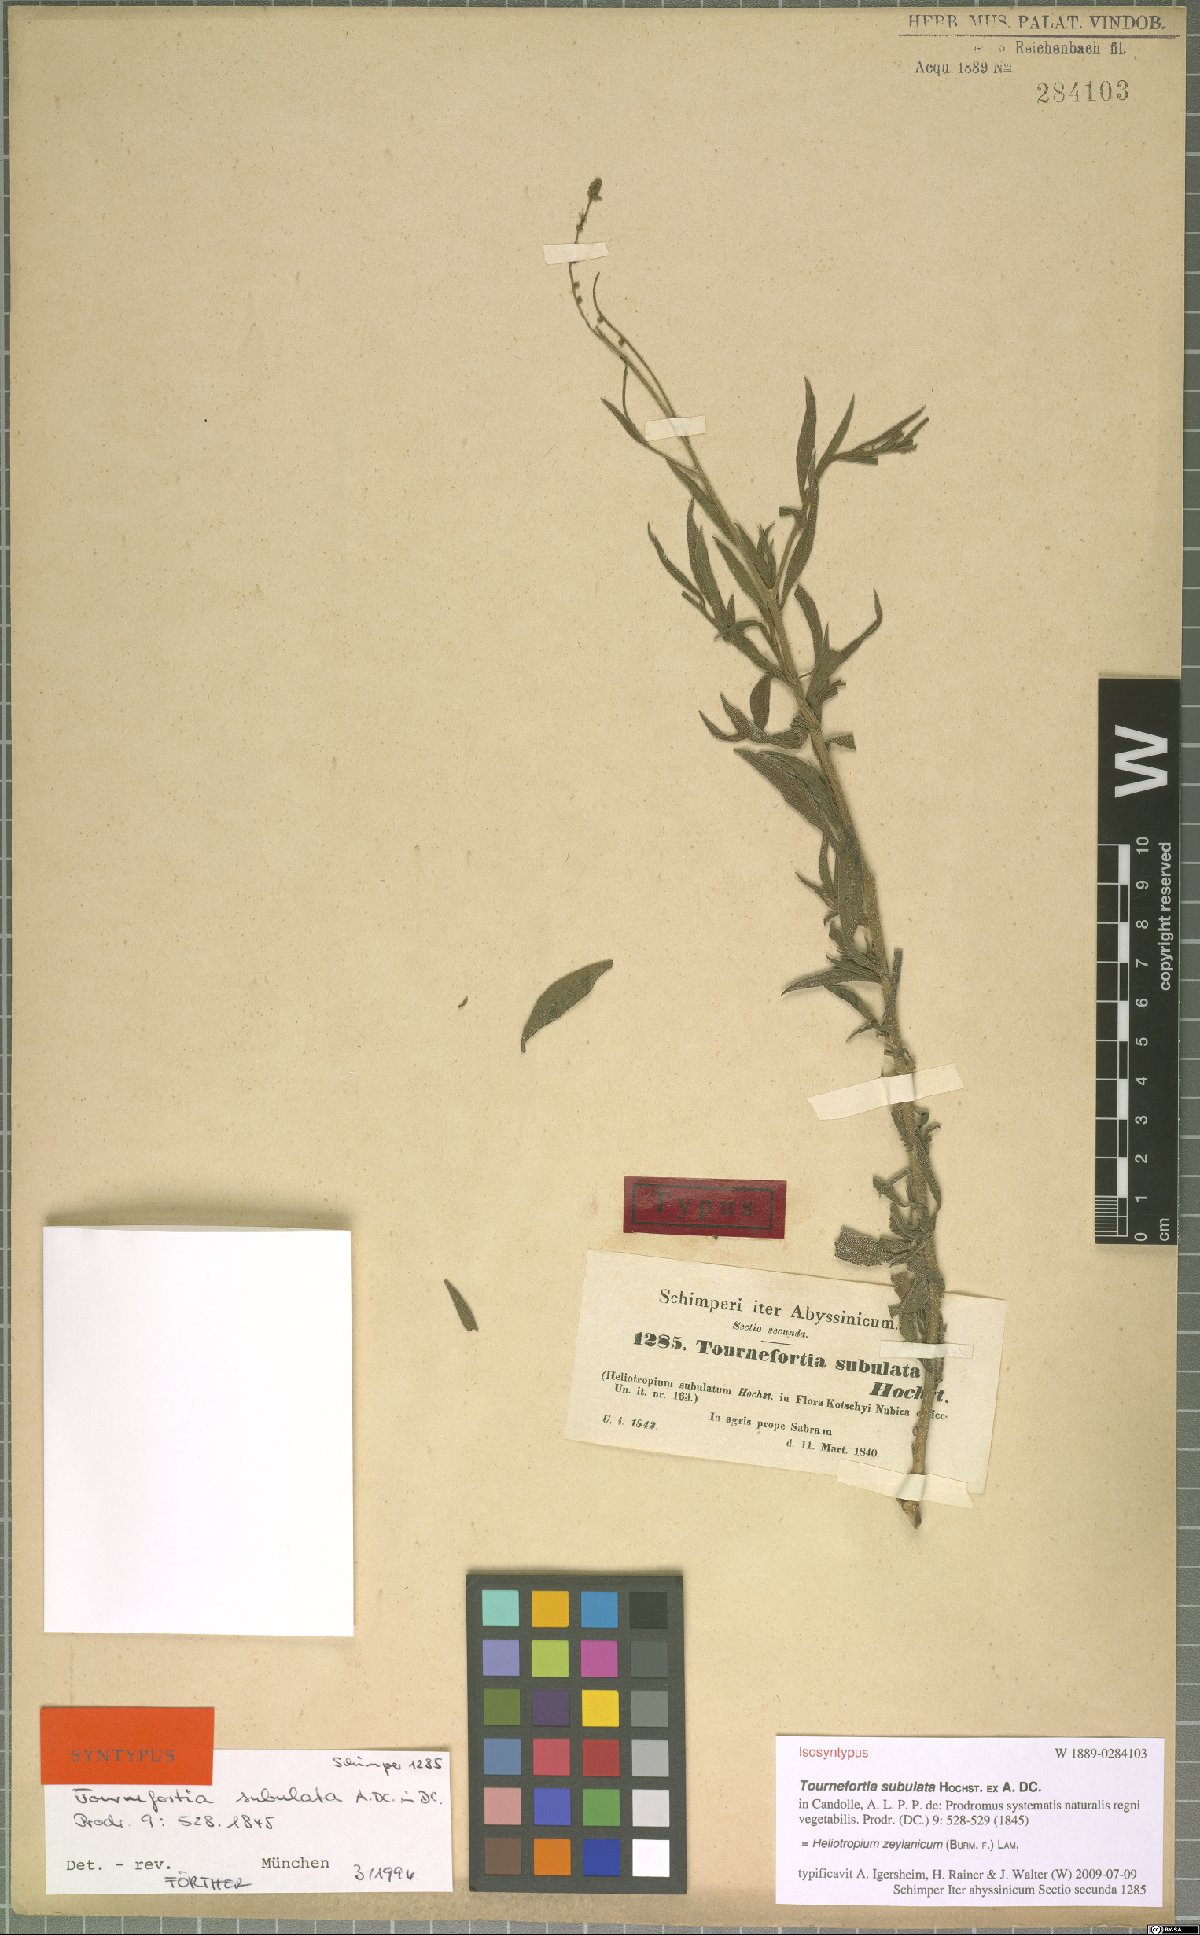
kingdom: Plantae
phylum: Tracheophyta
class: Magnoliopsida
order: Boraginales
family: Heliotropiaceae
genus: Heliotropium
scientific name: Heliotropium zeylanicum
